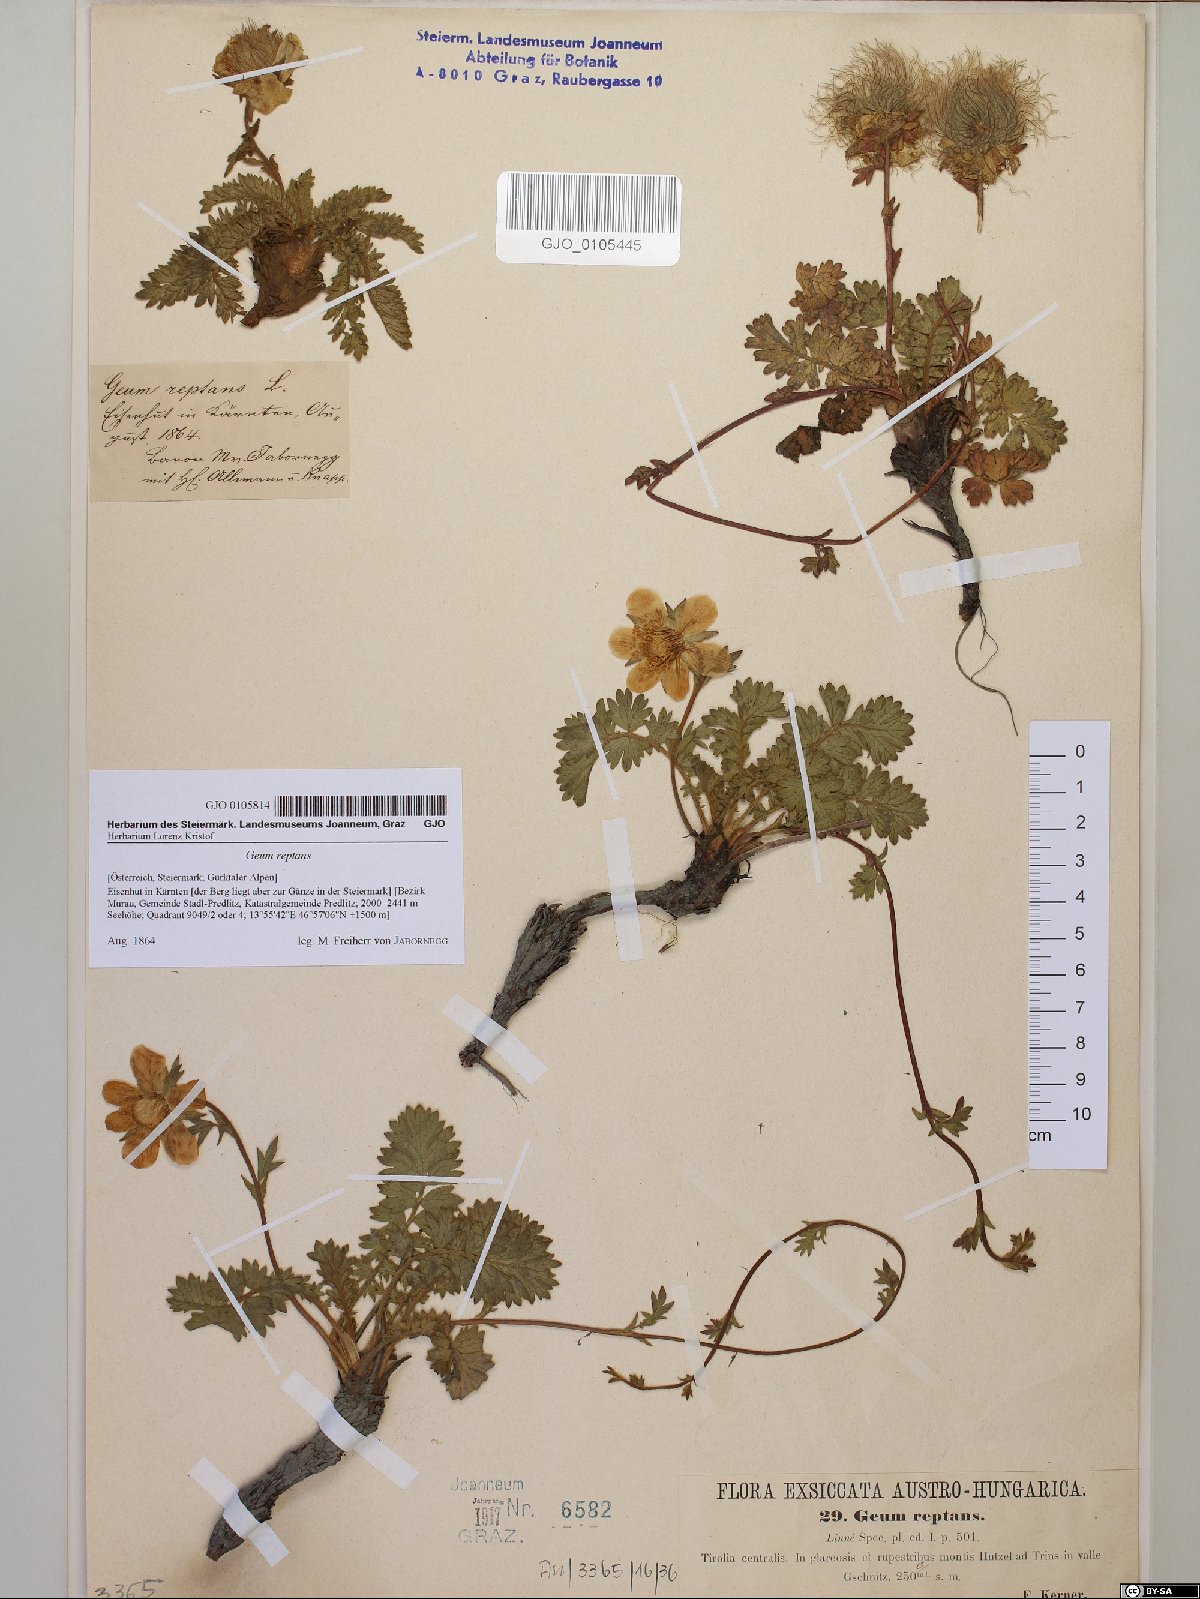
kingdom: Plantae
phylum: Tracheophyta
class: Magnoliopsida
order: Rosales
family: Rosaceae
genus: Geum
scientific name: Geum reptans
